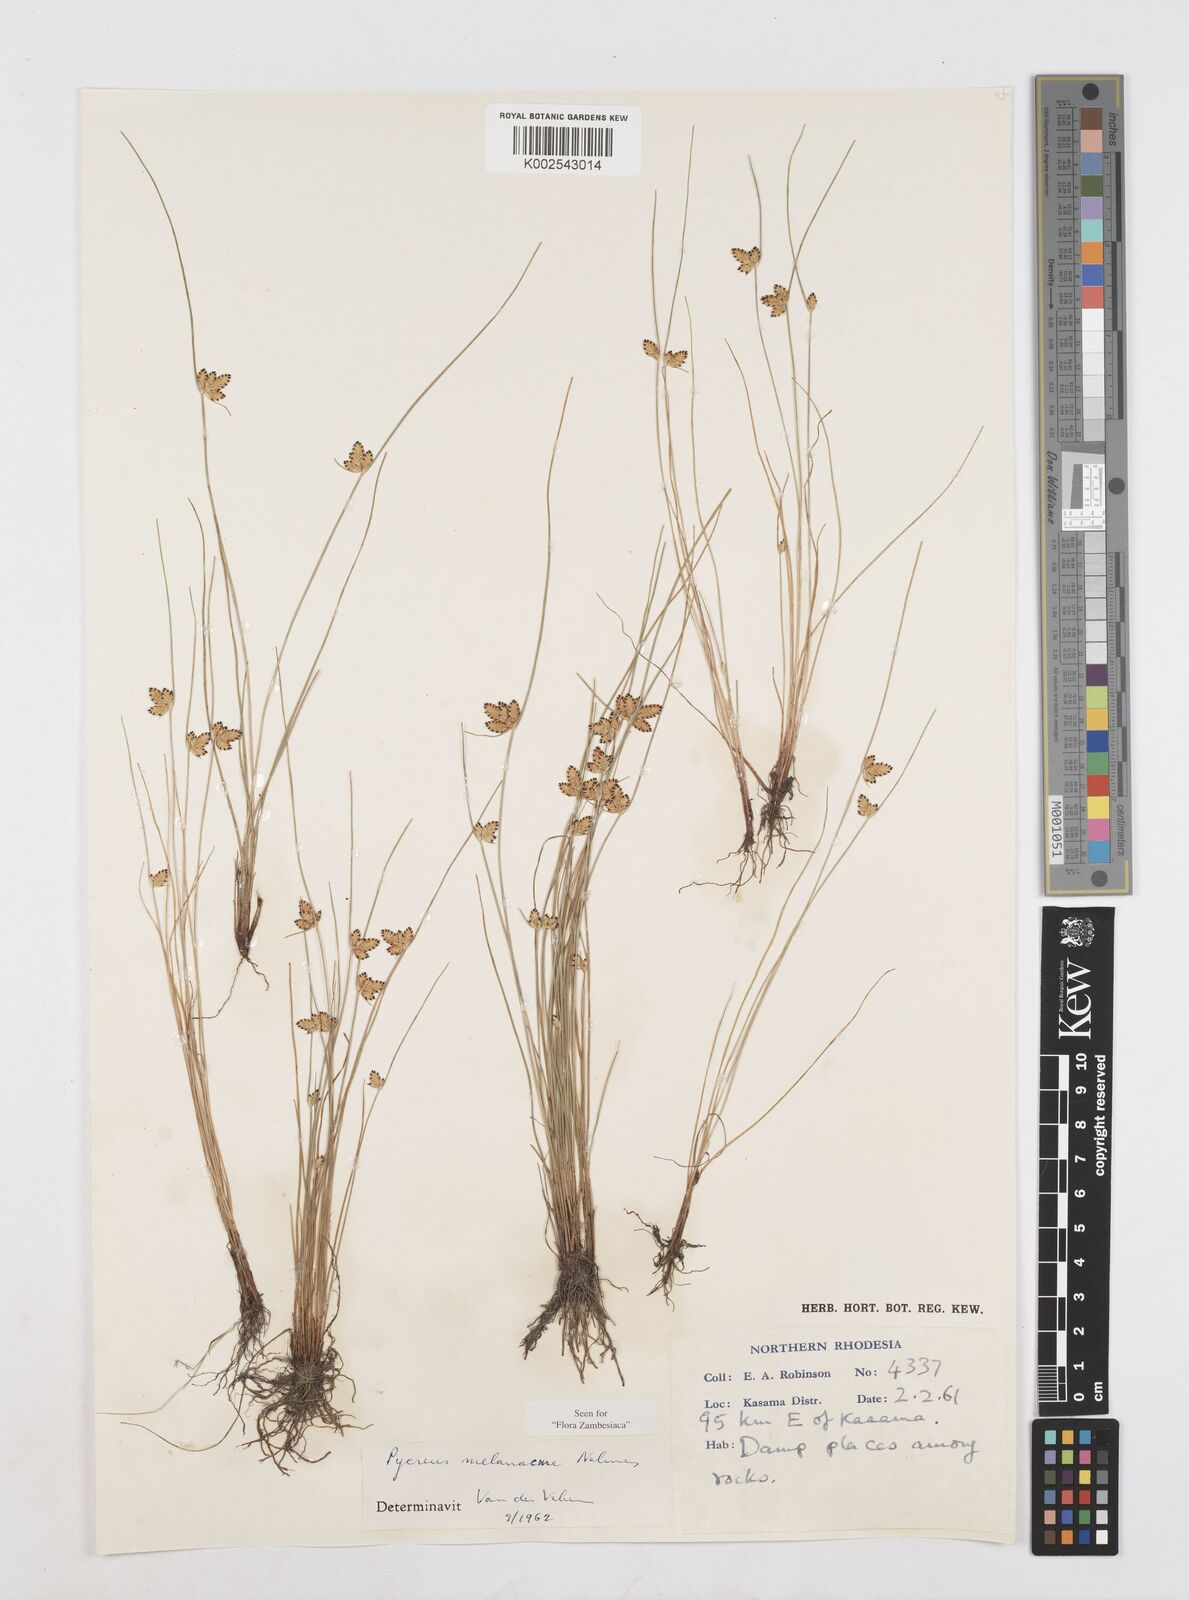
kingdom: Plantae
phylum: Tracheophyta
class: Liliopsida
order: Poales
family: Cyperaceae
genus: Cyperus
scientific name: Cyperus melanacme
